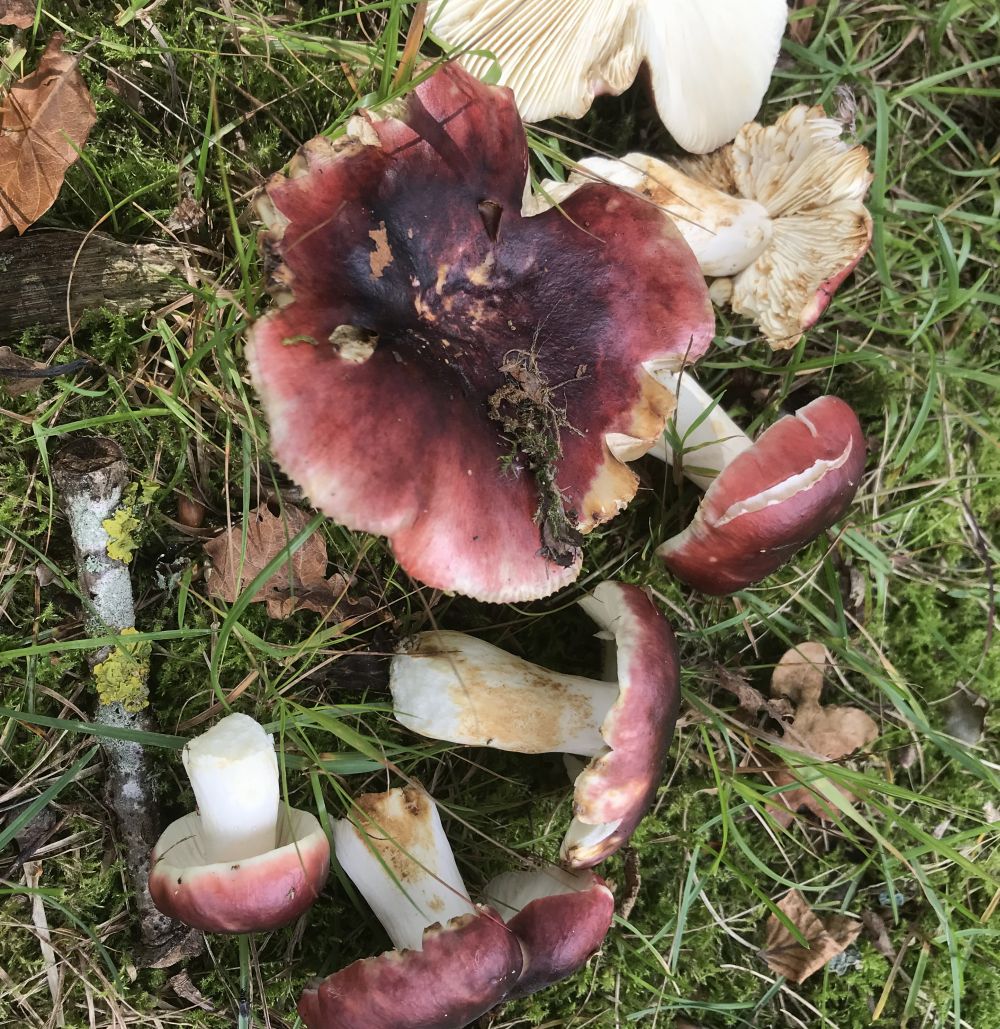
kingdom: Fungi
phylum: Basidiomycota
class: Agaricomycetes
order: Russulales
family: Russulaceae
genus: Russula
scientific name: Russula atropurpurea
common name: purpurbroget skørhat
